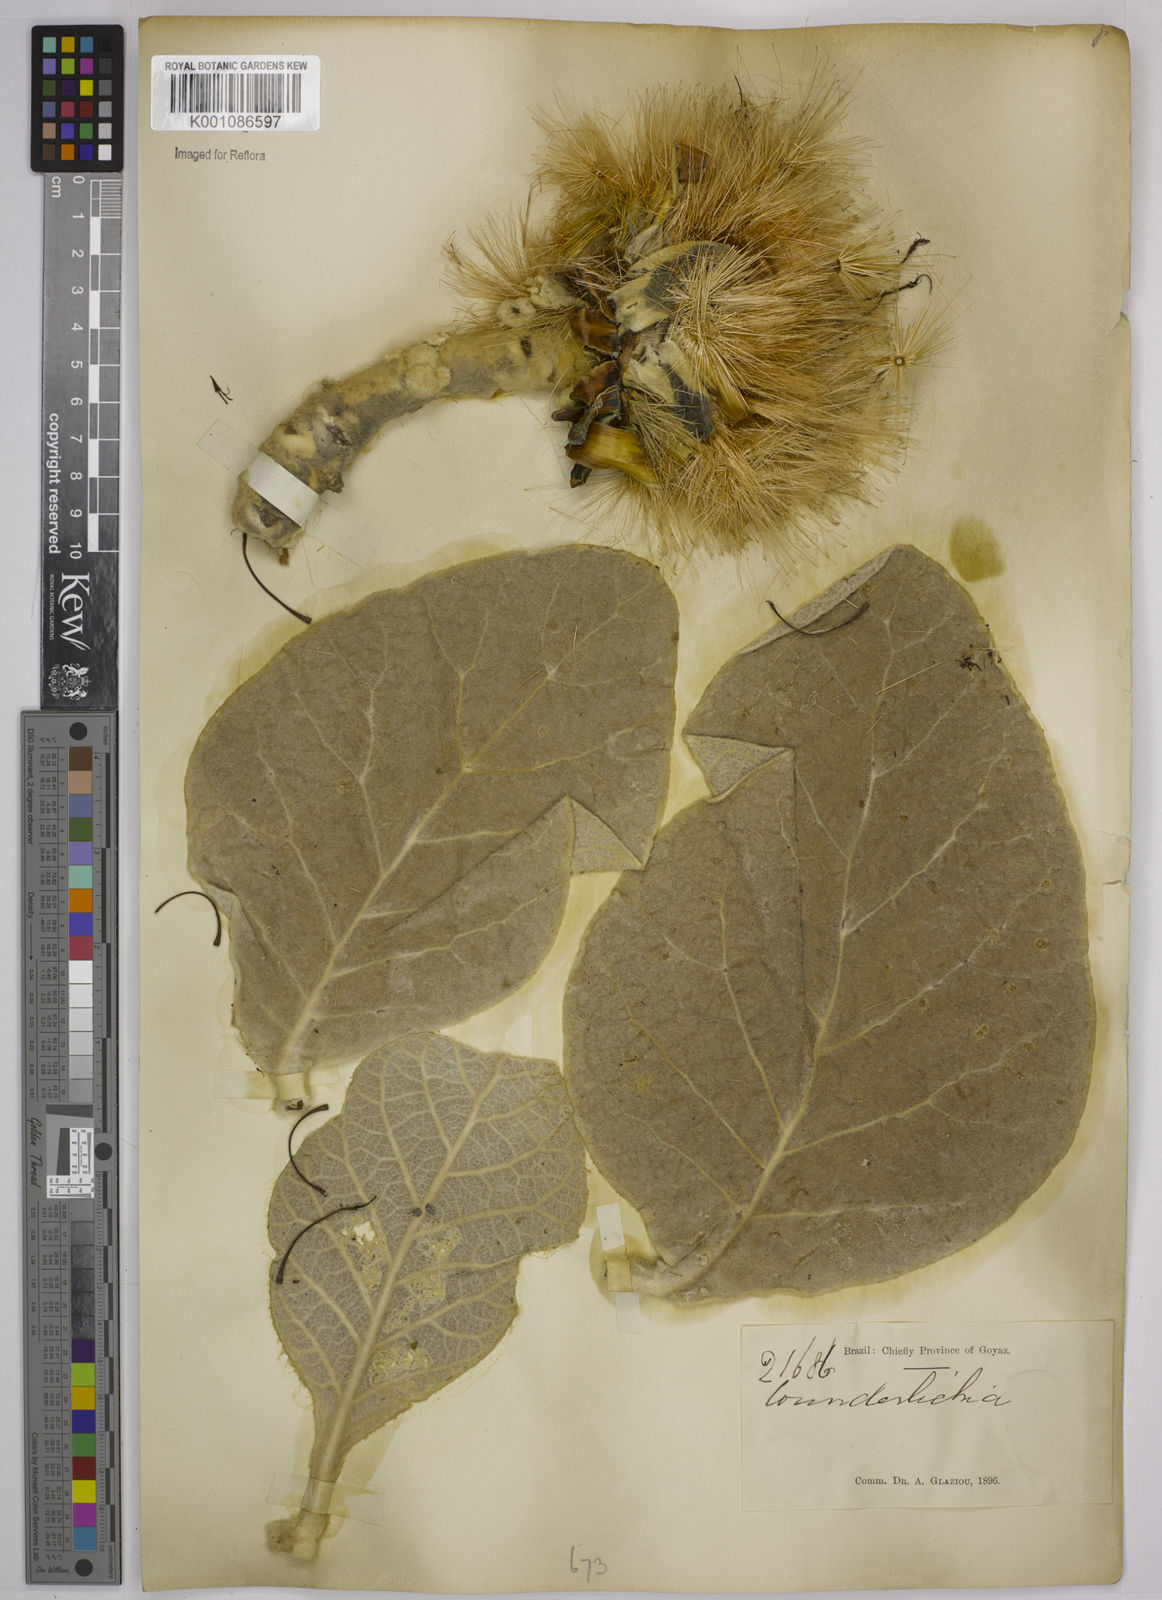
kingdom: Plantae
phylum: Tracheophyta
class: Magnoliopsida
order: Asterales
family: Asteraceae
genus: Wunderlichia
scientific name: Wunderlichia mirabilis
